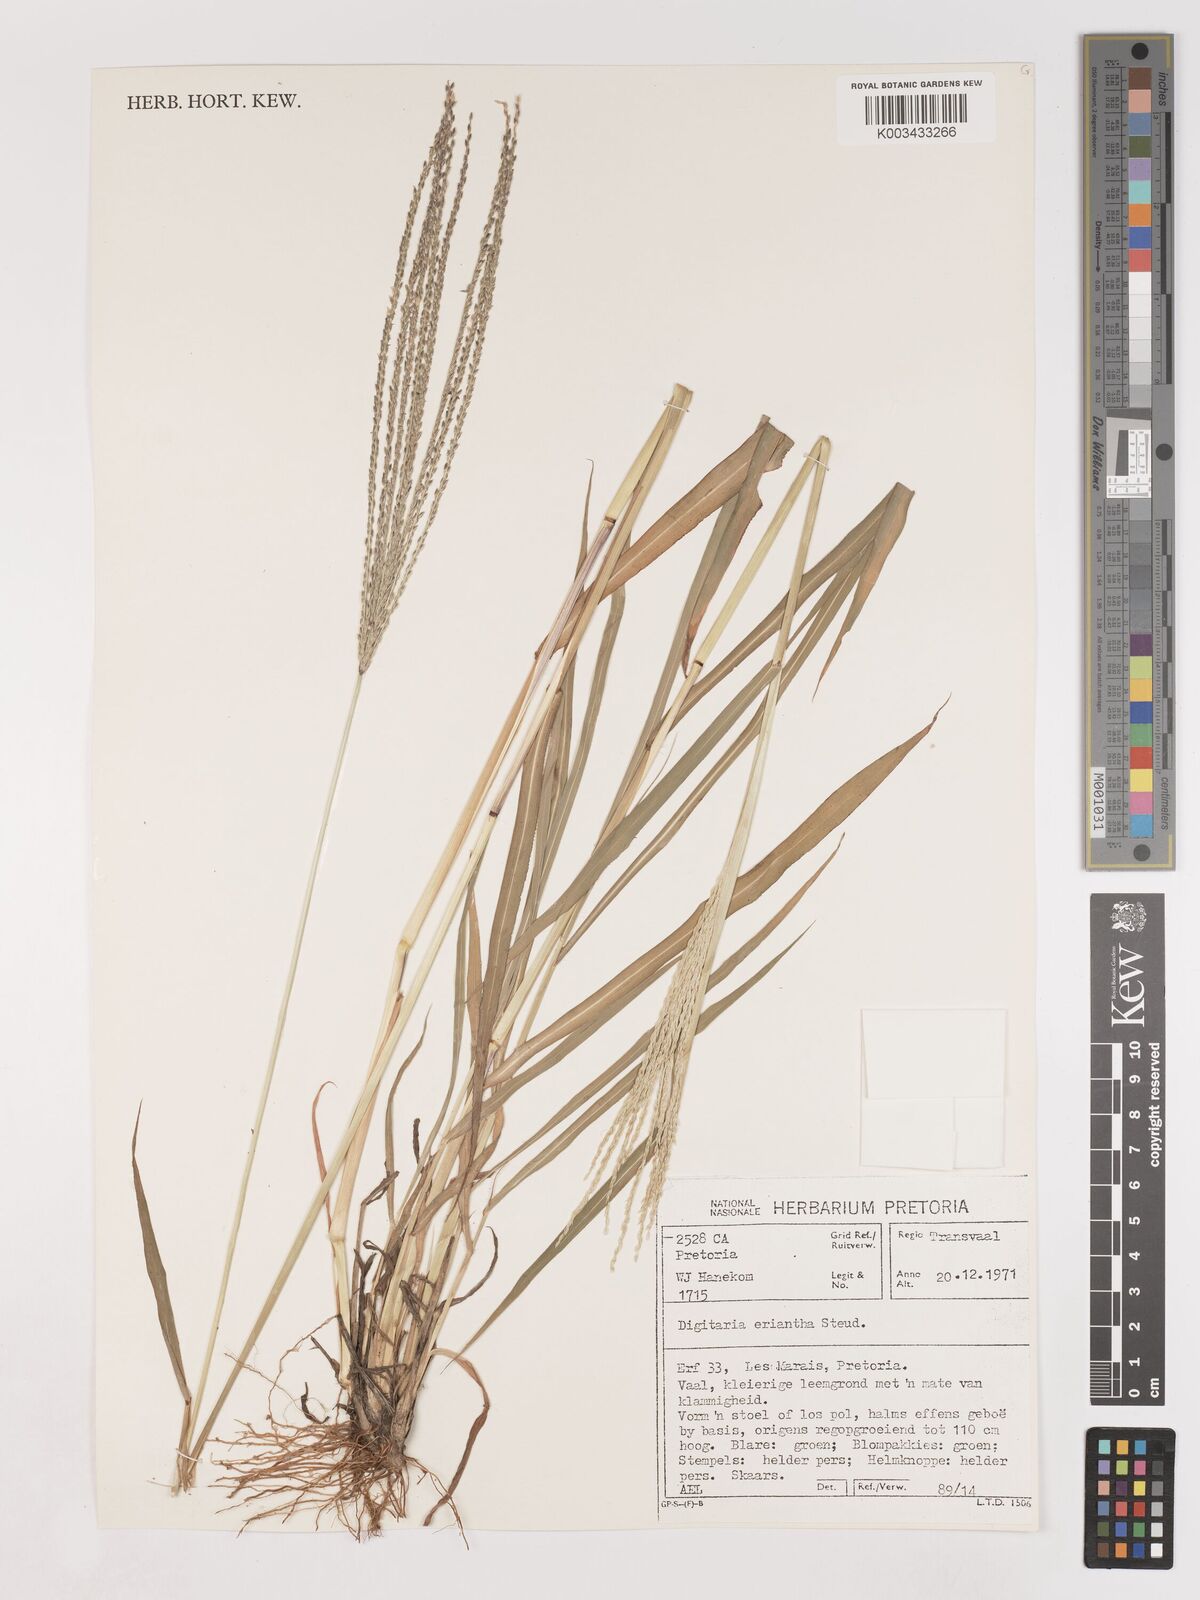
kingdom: Plantae
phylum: Tracheophyta
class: Liliopsida
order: Poales
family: Poaceae
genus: Digitaria
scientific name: Digitaria eriantha
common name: Digitgrass
